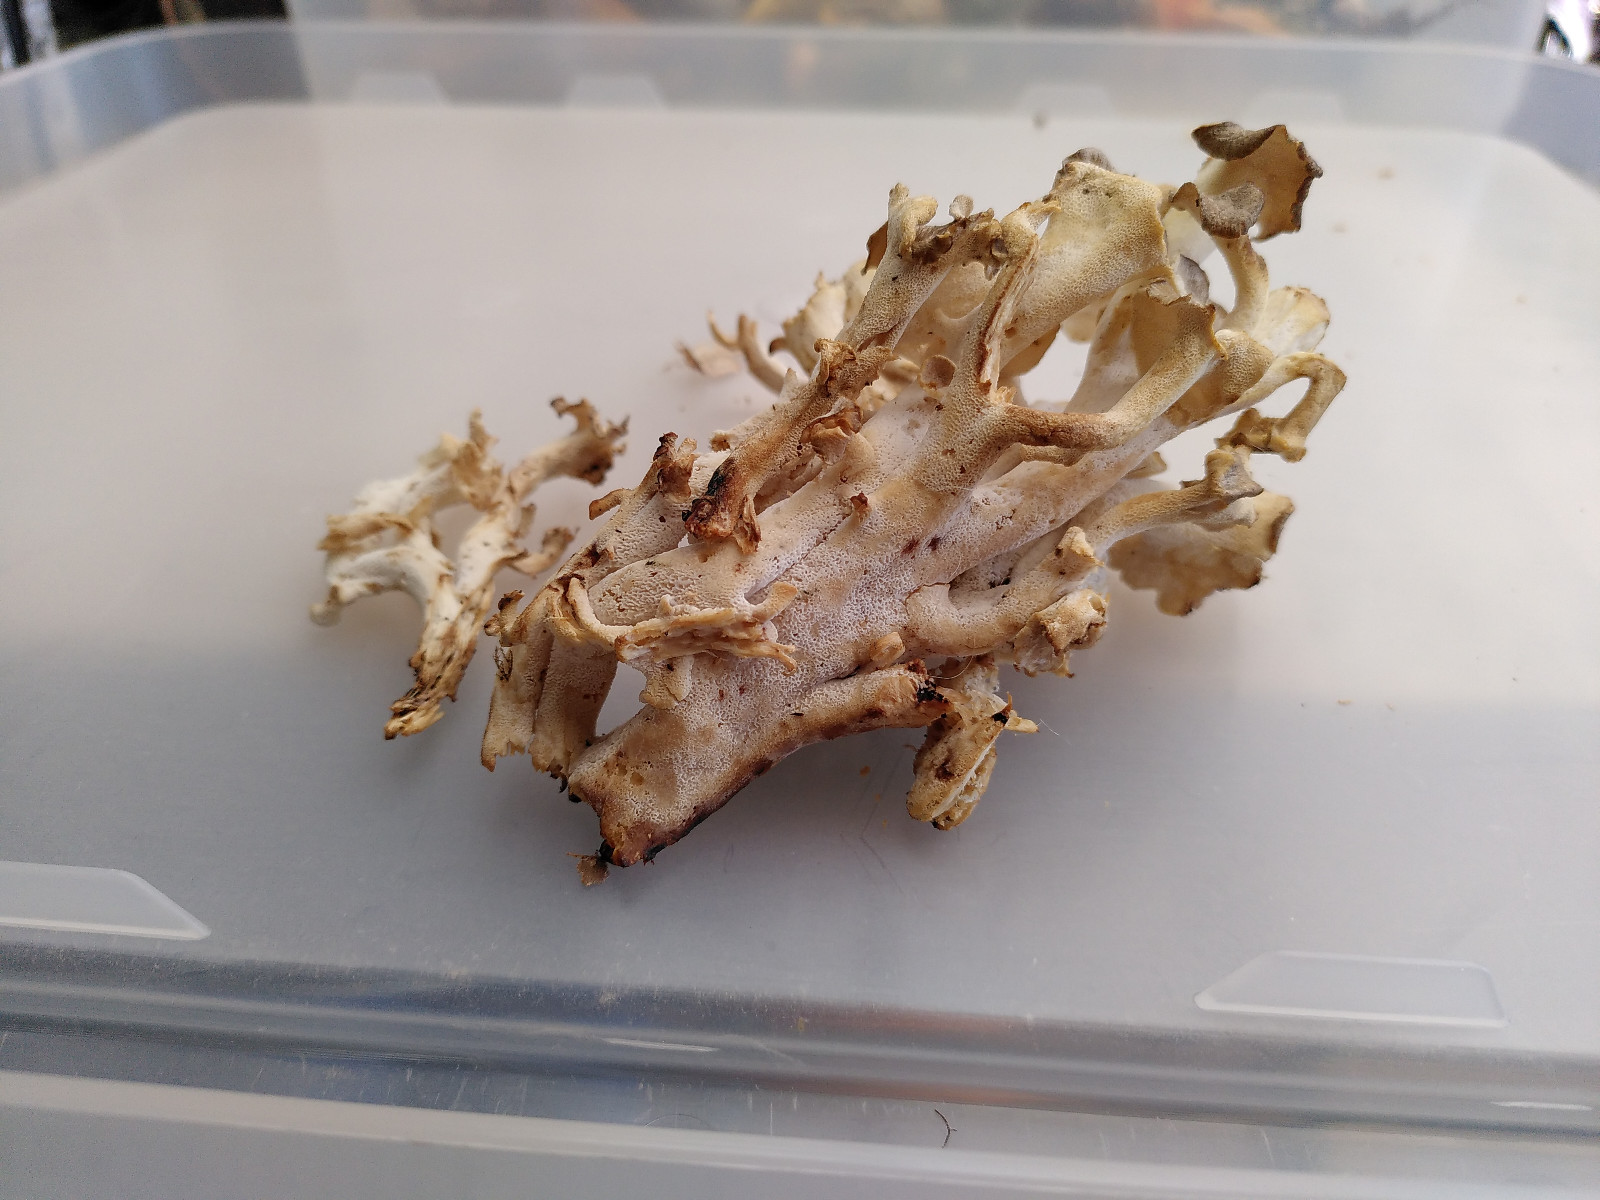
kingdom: Fungi
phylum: Basidiomycota
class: Agaricomycetes
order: Polyporales
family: Polyporaceae
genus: Polyporus
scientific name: Polyporus umbellatus
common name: skærmformet stilkporesvamp
